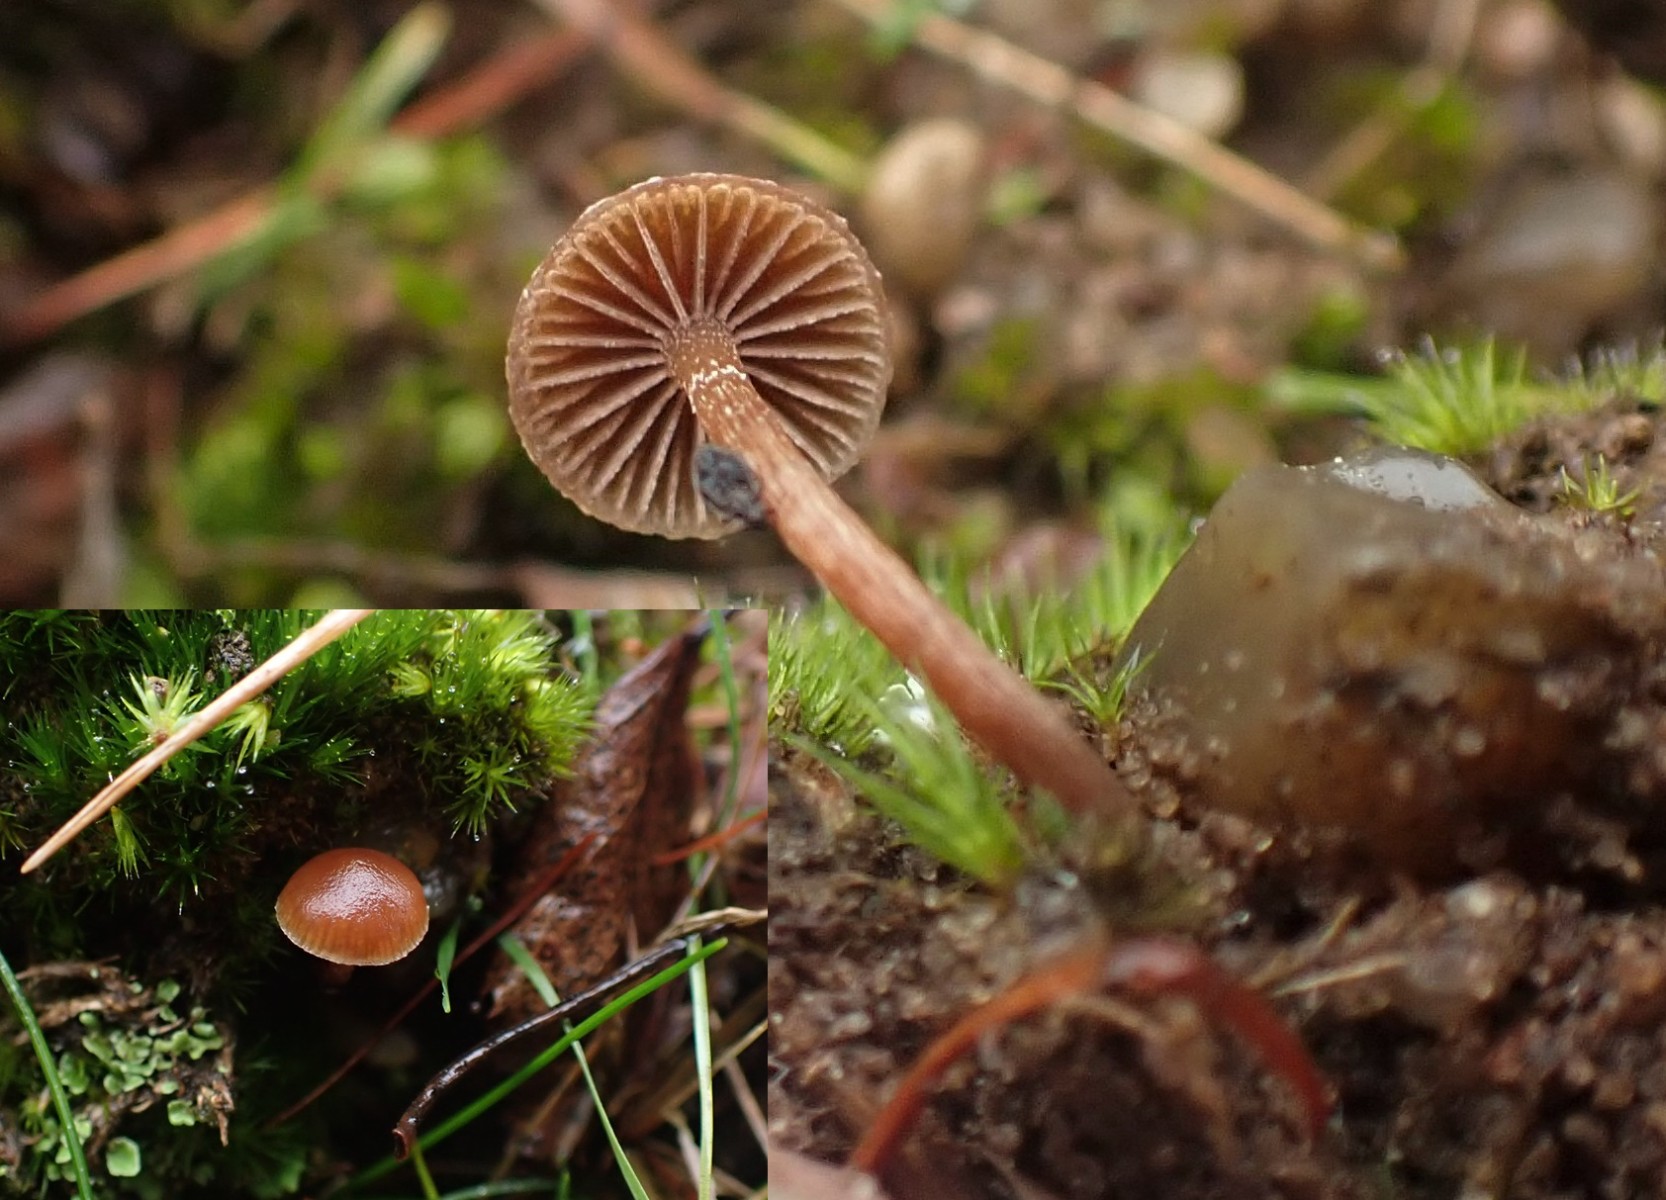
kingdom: Fungi
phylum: Basidiomycota
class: Agaricomycetes
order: Agaricales
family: Strophariaceae
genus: Deconica
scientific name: Deconica montana
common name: rødbrun stråhat
